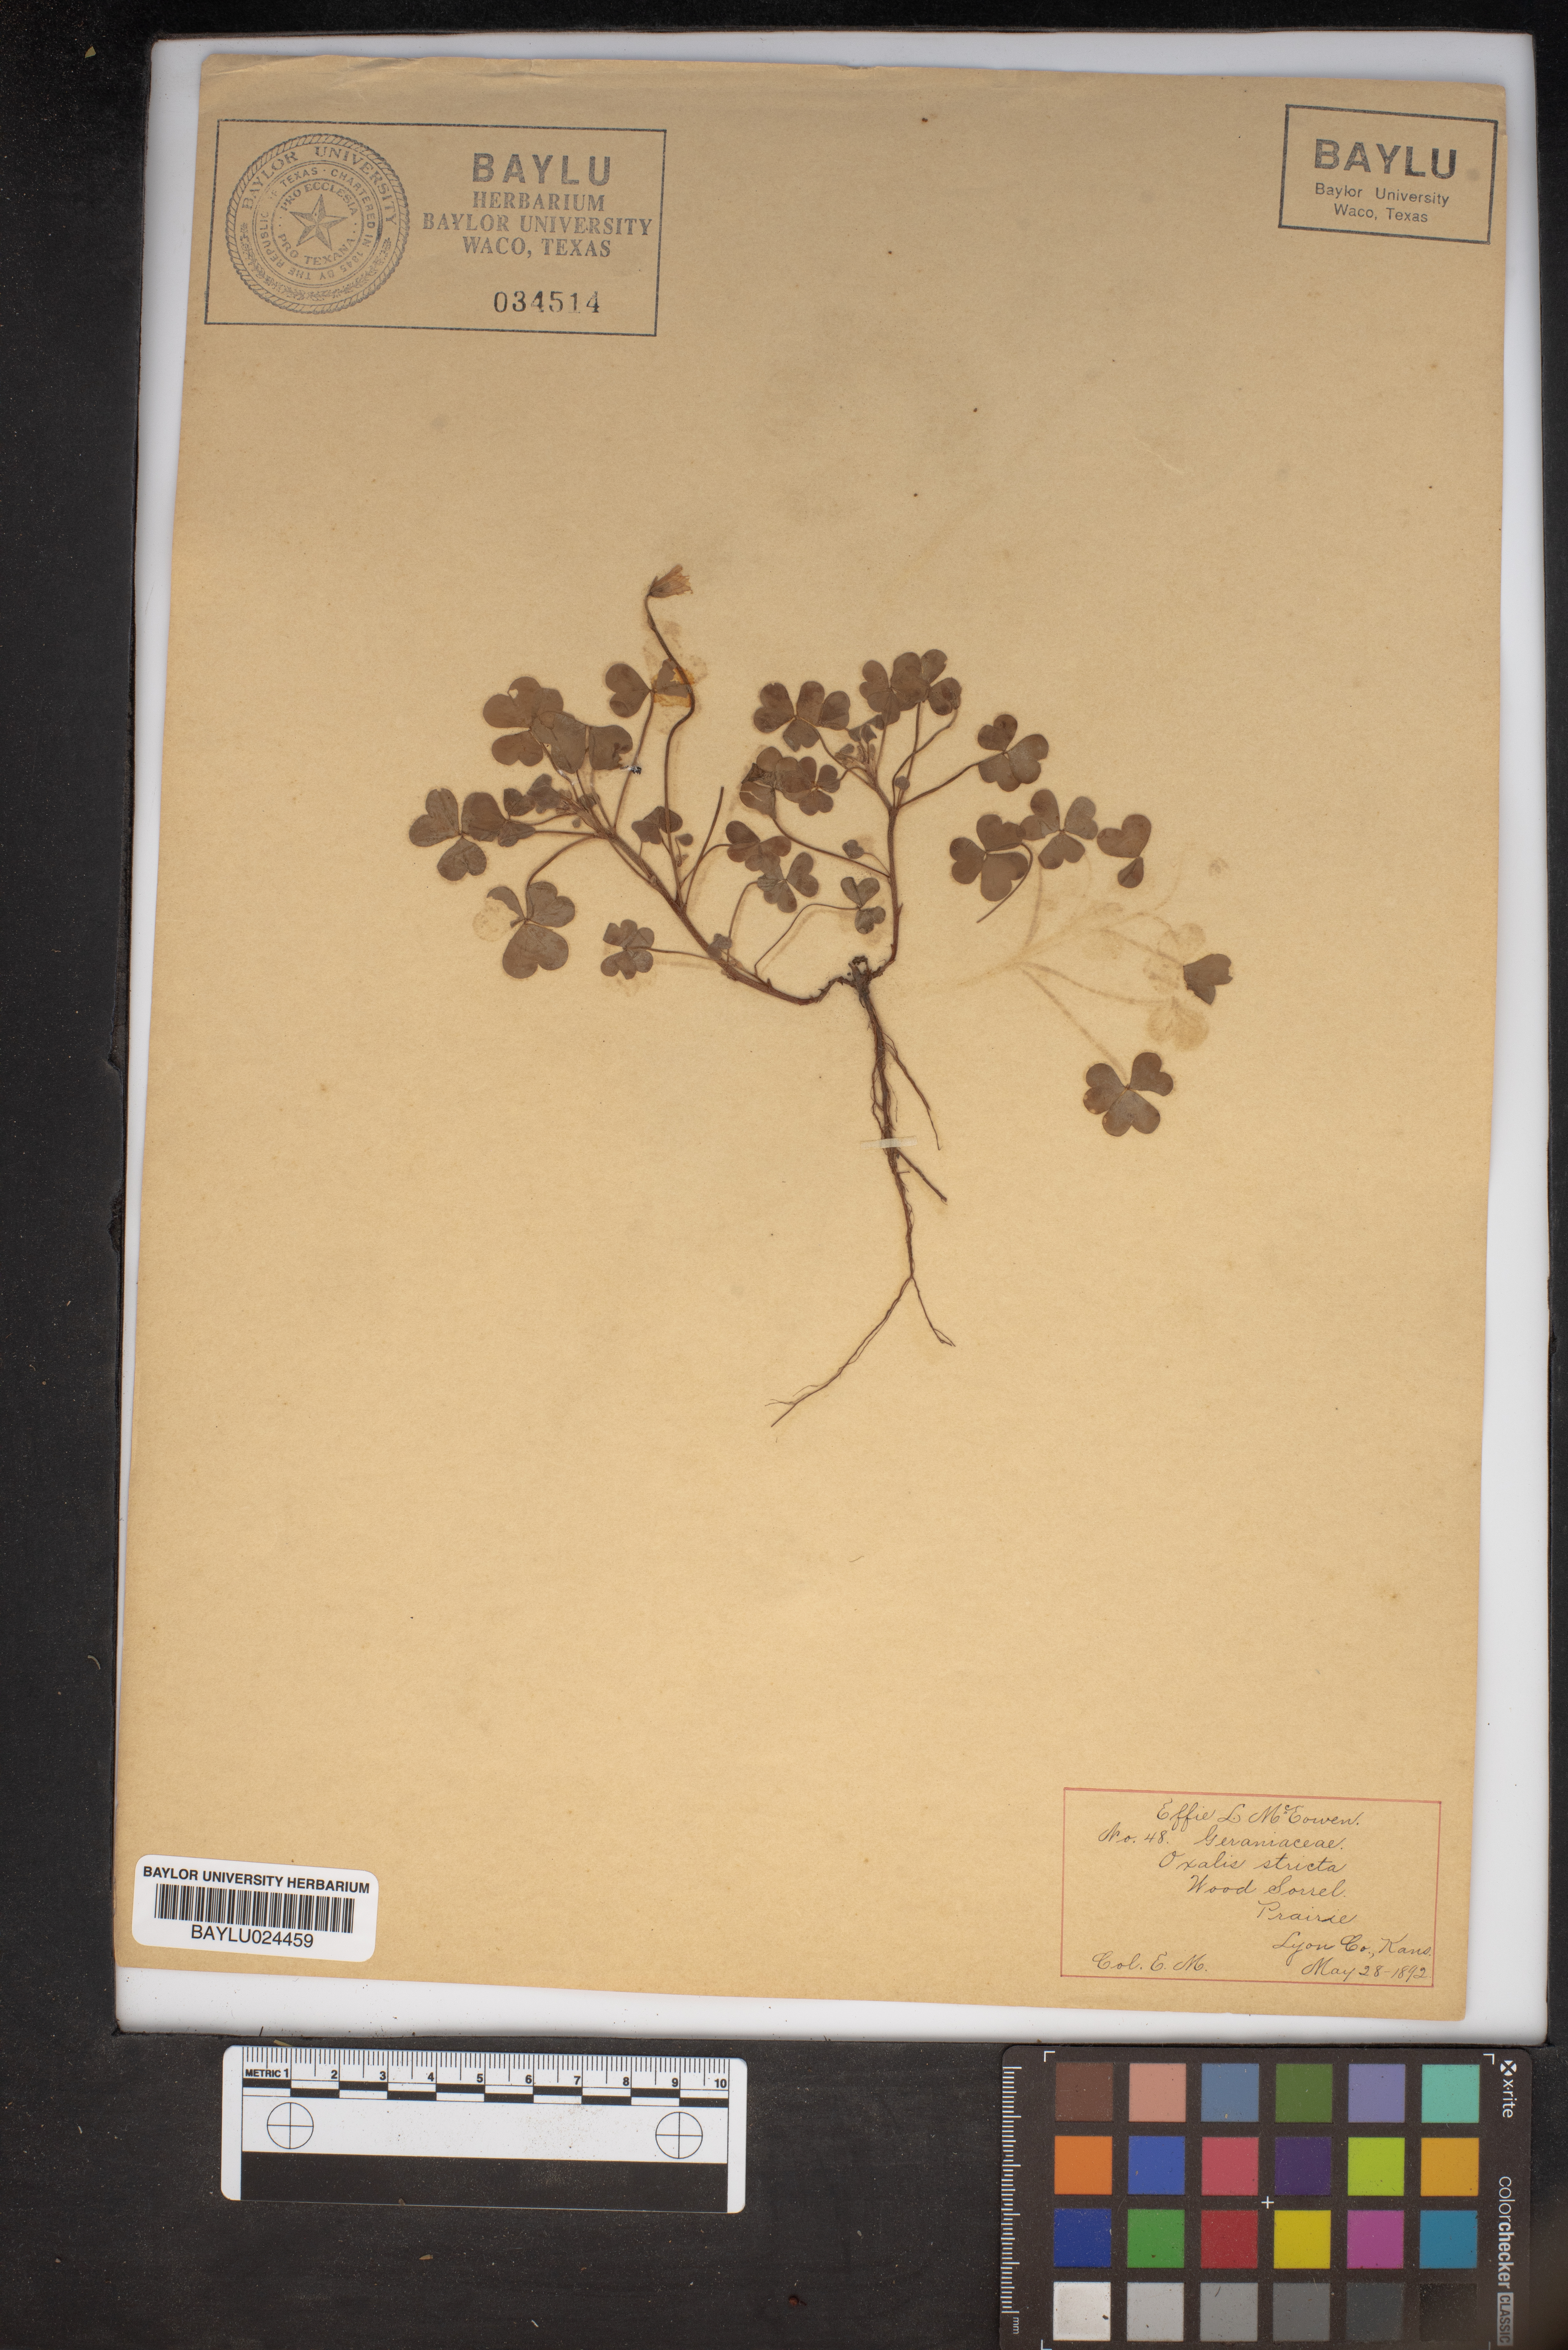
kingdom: Plantae
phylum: Tracheophyta
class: Magnoliopsida
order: Oxalidales
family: Oxalidaceae
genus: Oxalis
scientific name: Oxalis stricta
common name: Upright yellow-sorrel
